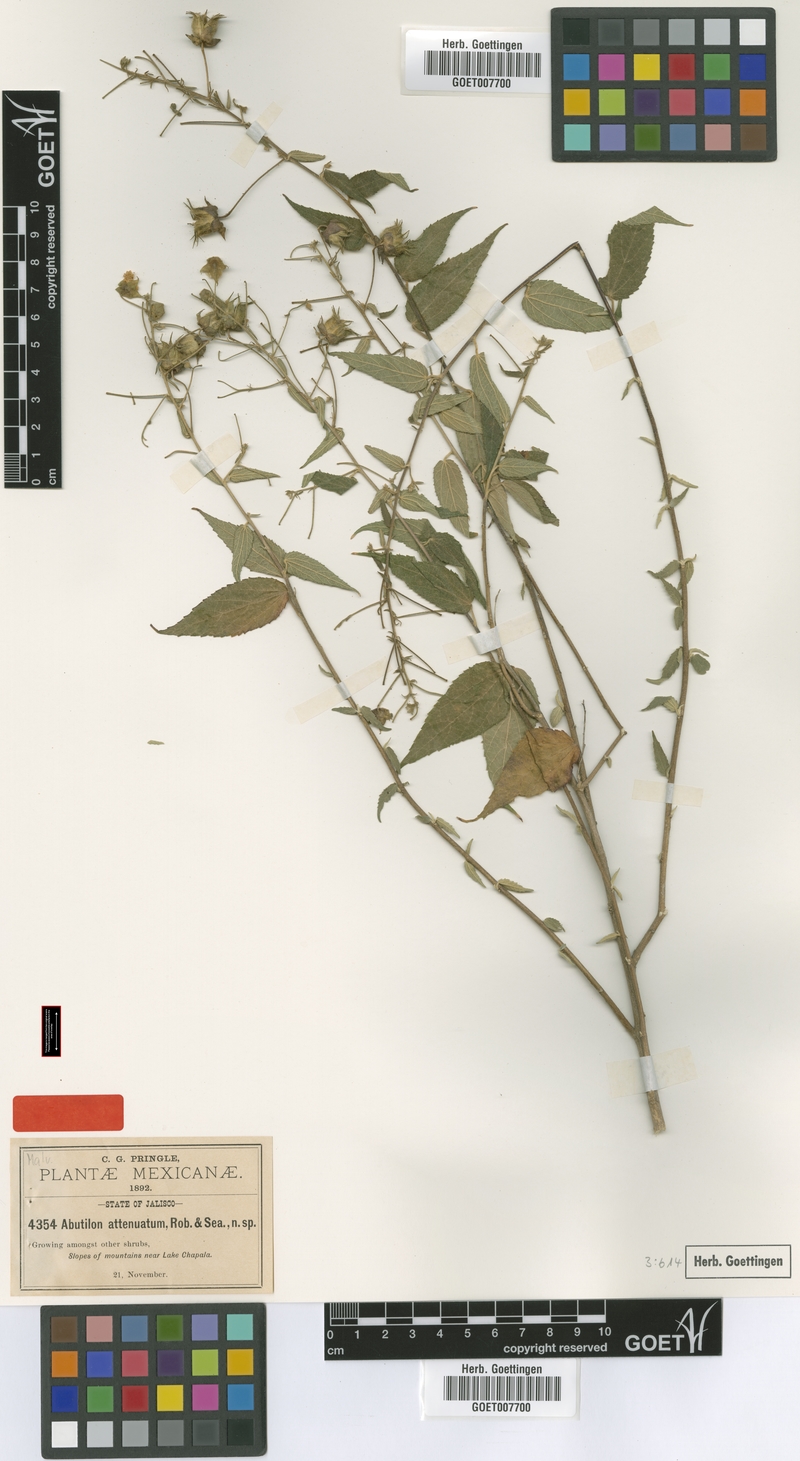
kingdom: Plantae
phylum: Tracheophyta
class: Magnoliopsida
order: Malvales
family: Malvaceae
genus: Pseudabutilon
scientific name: Pseudabutilon ellipticum
